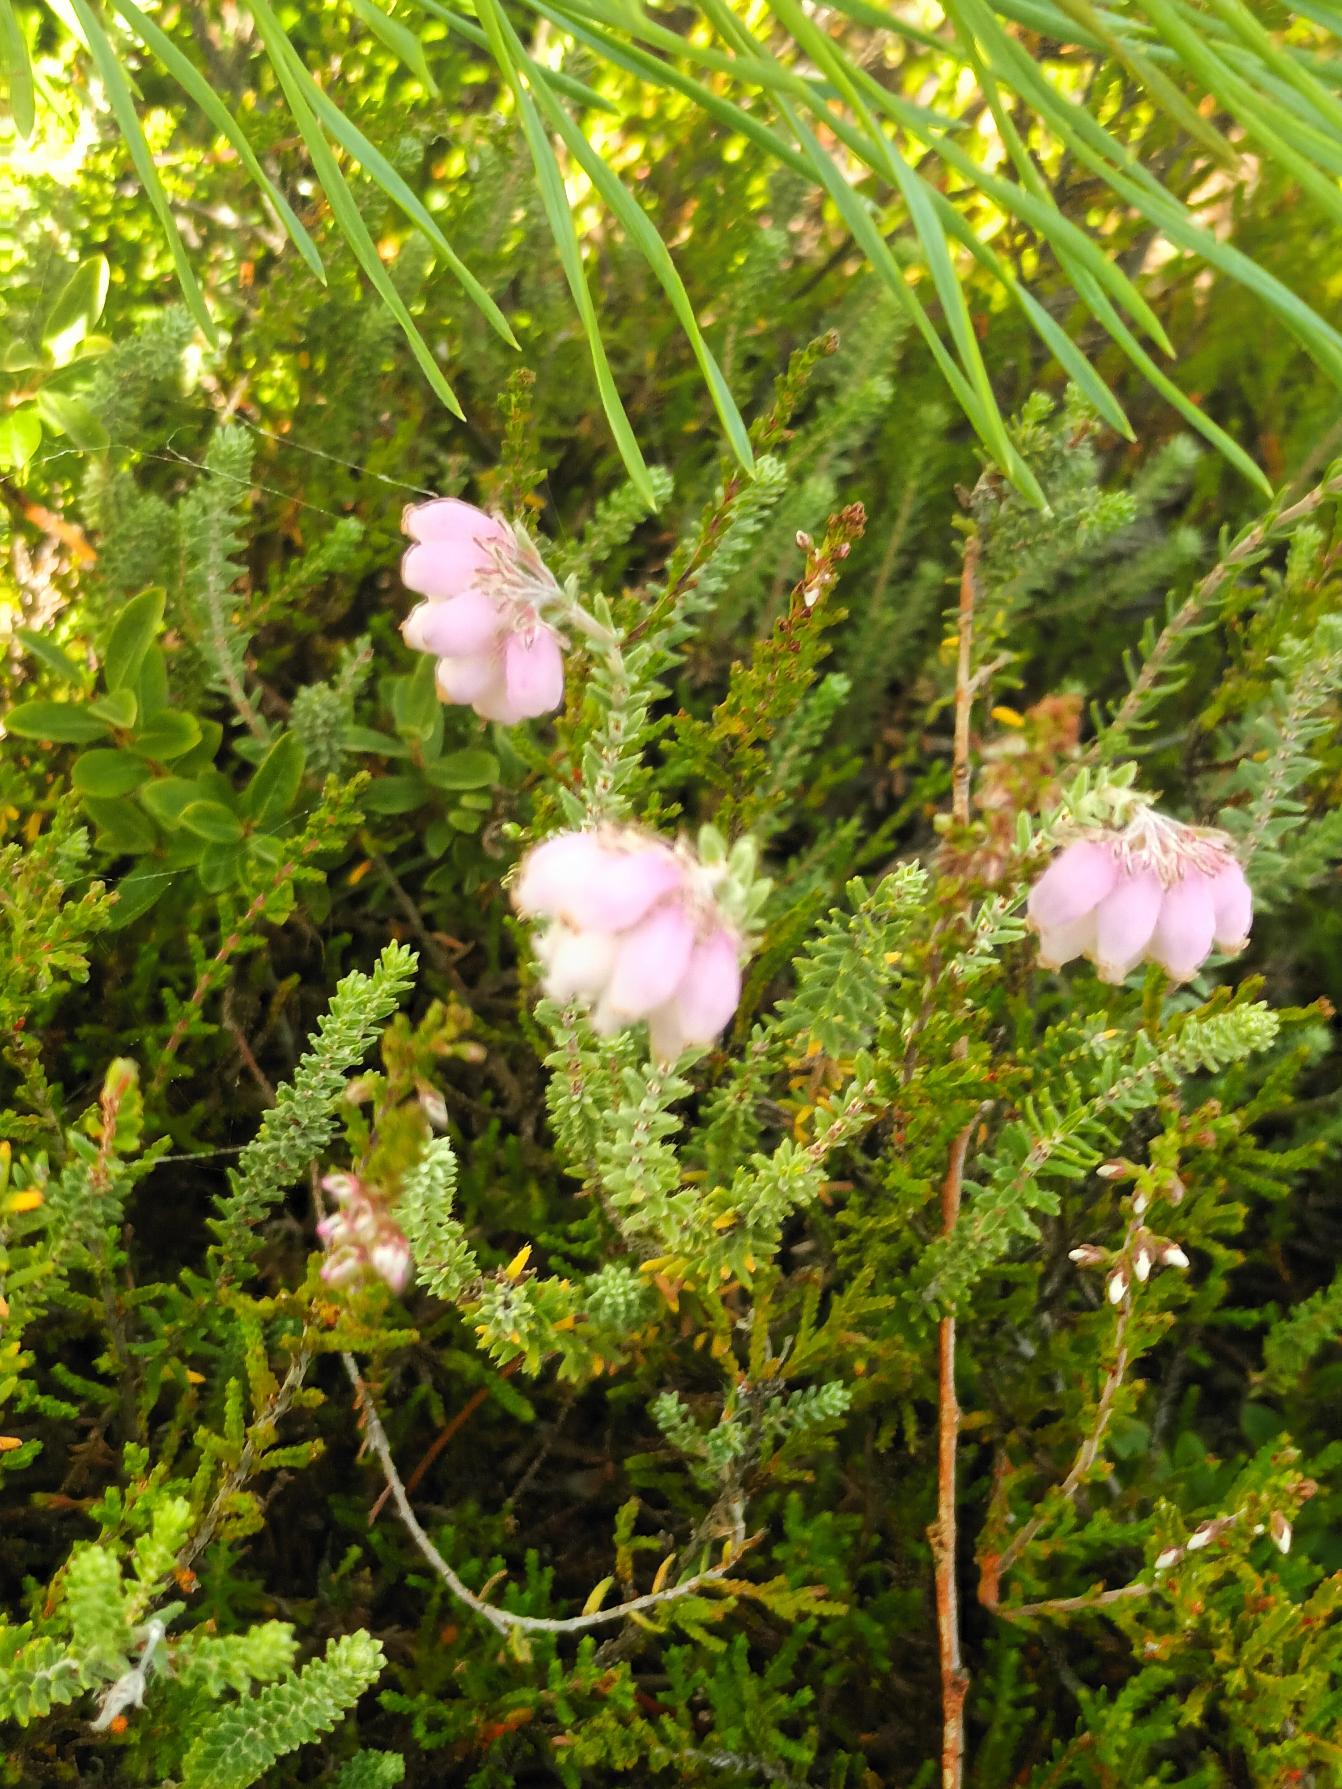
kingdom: Plantae
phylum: Tracheophyta
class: Magnoliopsida
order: Ericales
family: Ericaceae
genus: Erica
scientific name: Erica tetralix
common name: Klokkelyng
